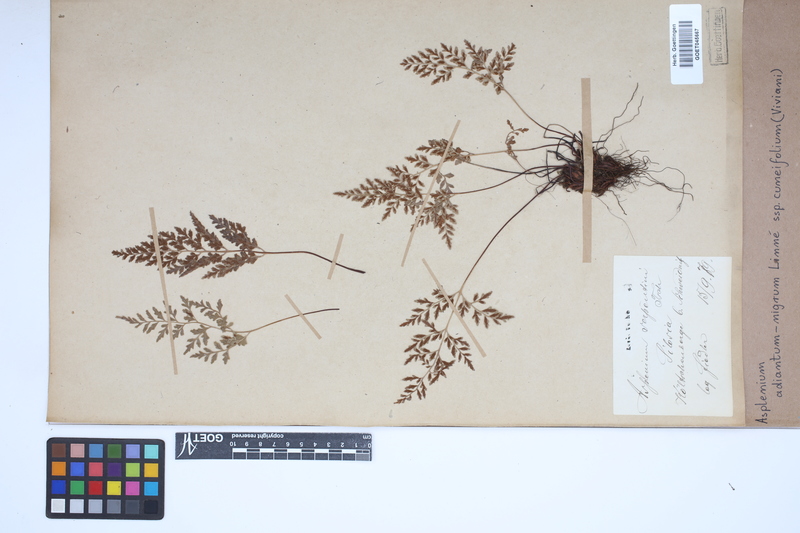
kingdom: Plantae
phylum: Tracheophyta
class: Polypodiopsida
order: Polypodiales
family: Aspleniaceae
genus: Asplenium
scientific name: Asplenium cuneifolium
